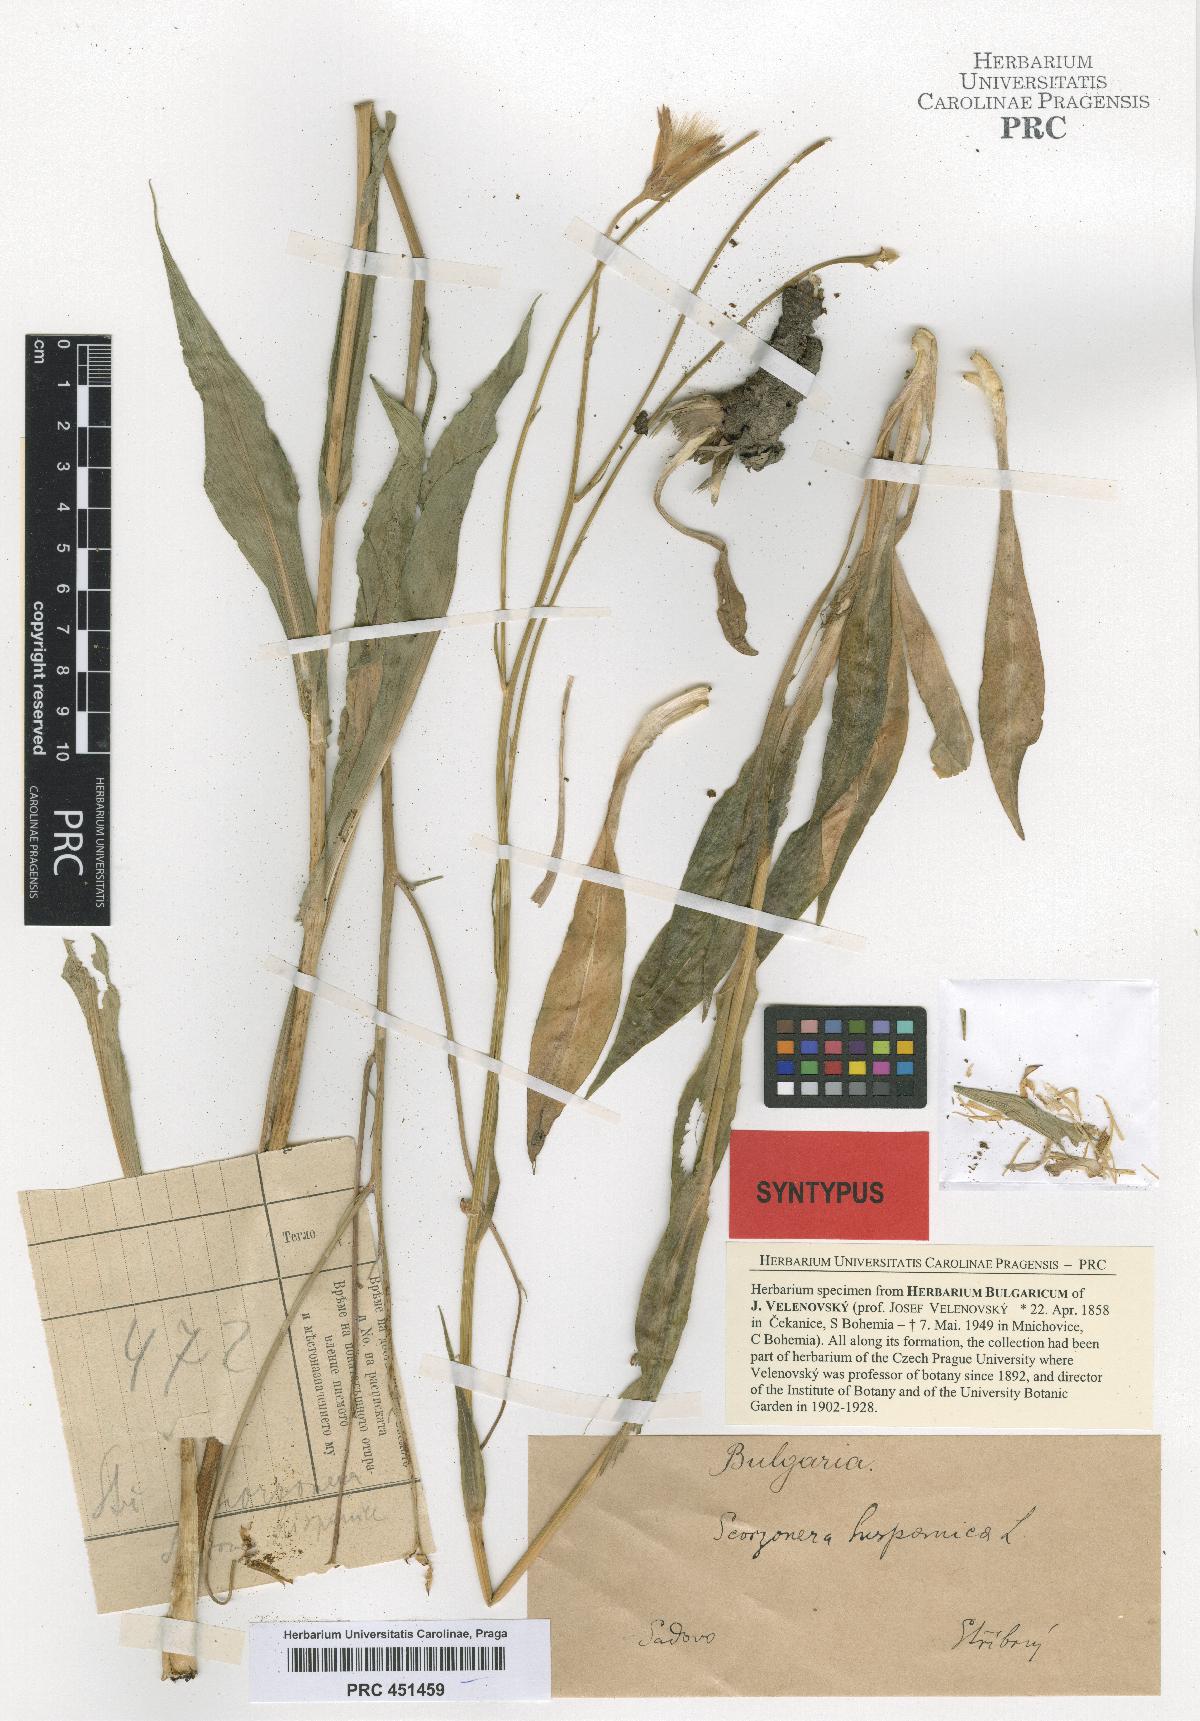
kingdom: Plantae
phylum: Tracheophyta
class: Magnoliopsida
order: Asterales
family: Asteraceae
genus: Pseudopodospermum
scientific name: Pseudopodospermum hispanicum
